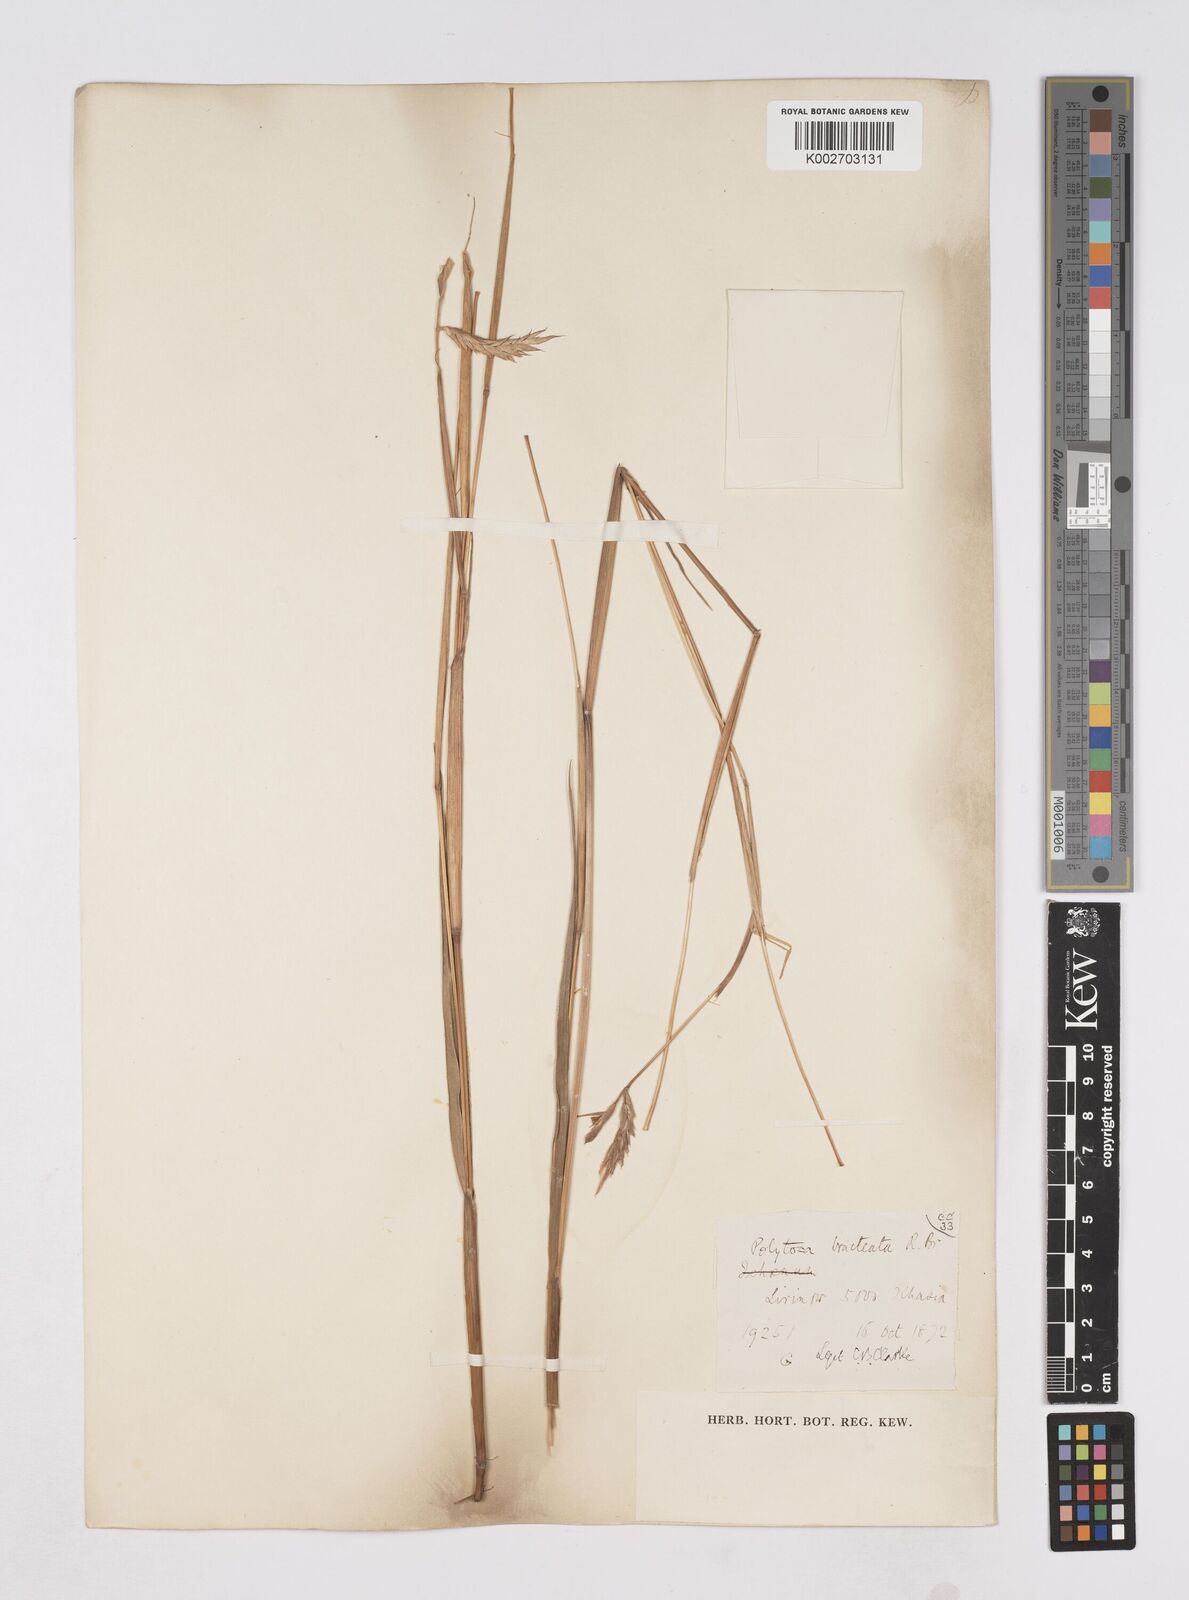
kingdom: Plantae
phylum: Tracheophyta
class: Liliopsida
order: Poales
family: Poaceae
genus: Polytoca
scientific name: Polytoca digitata
